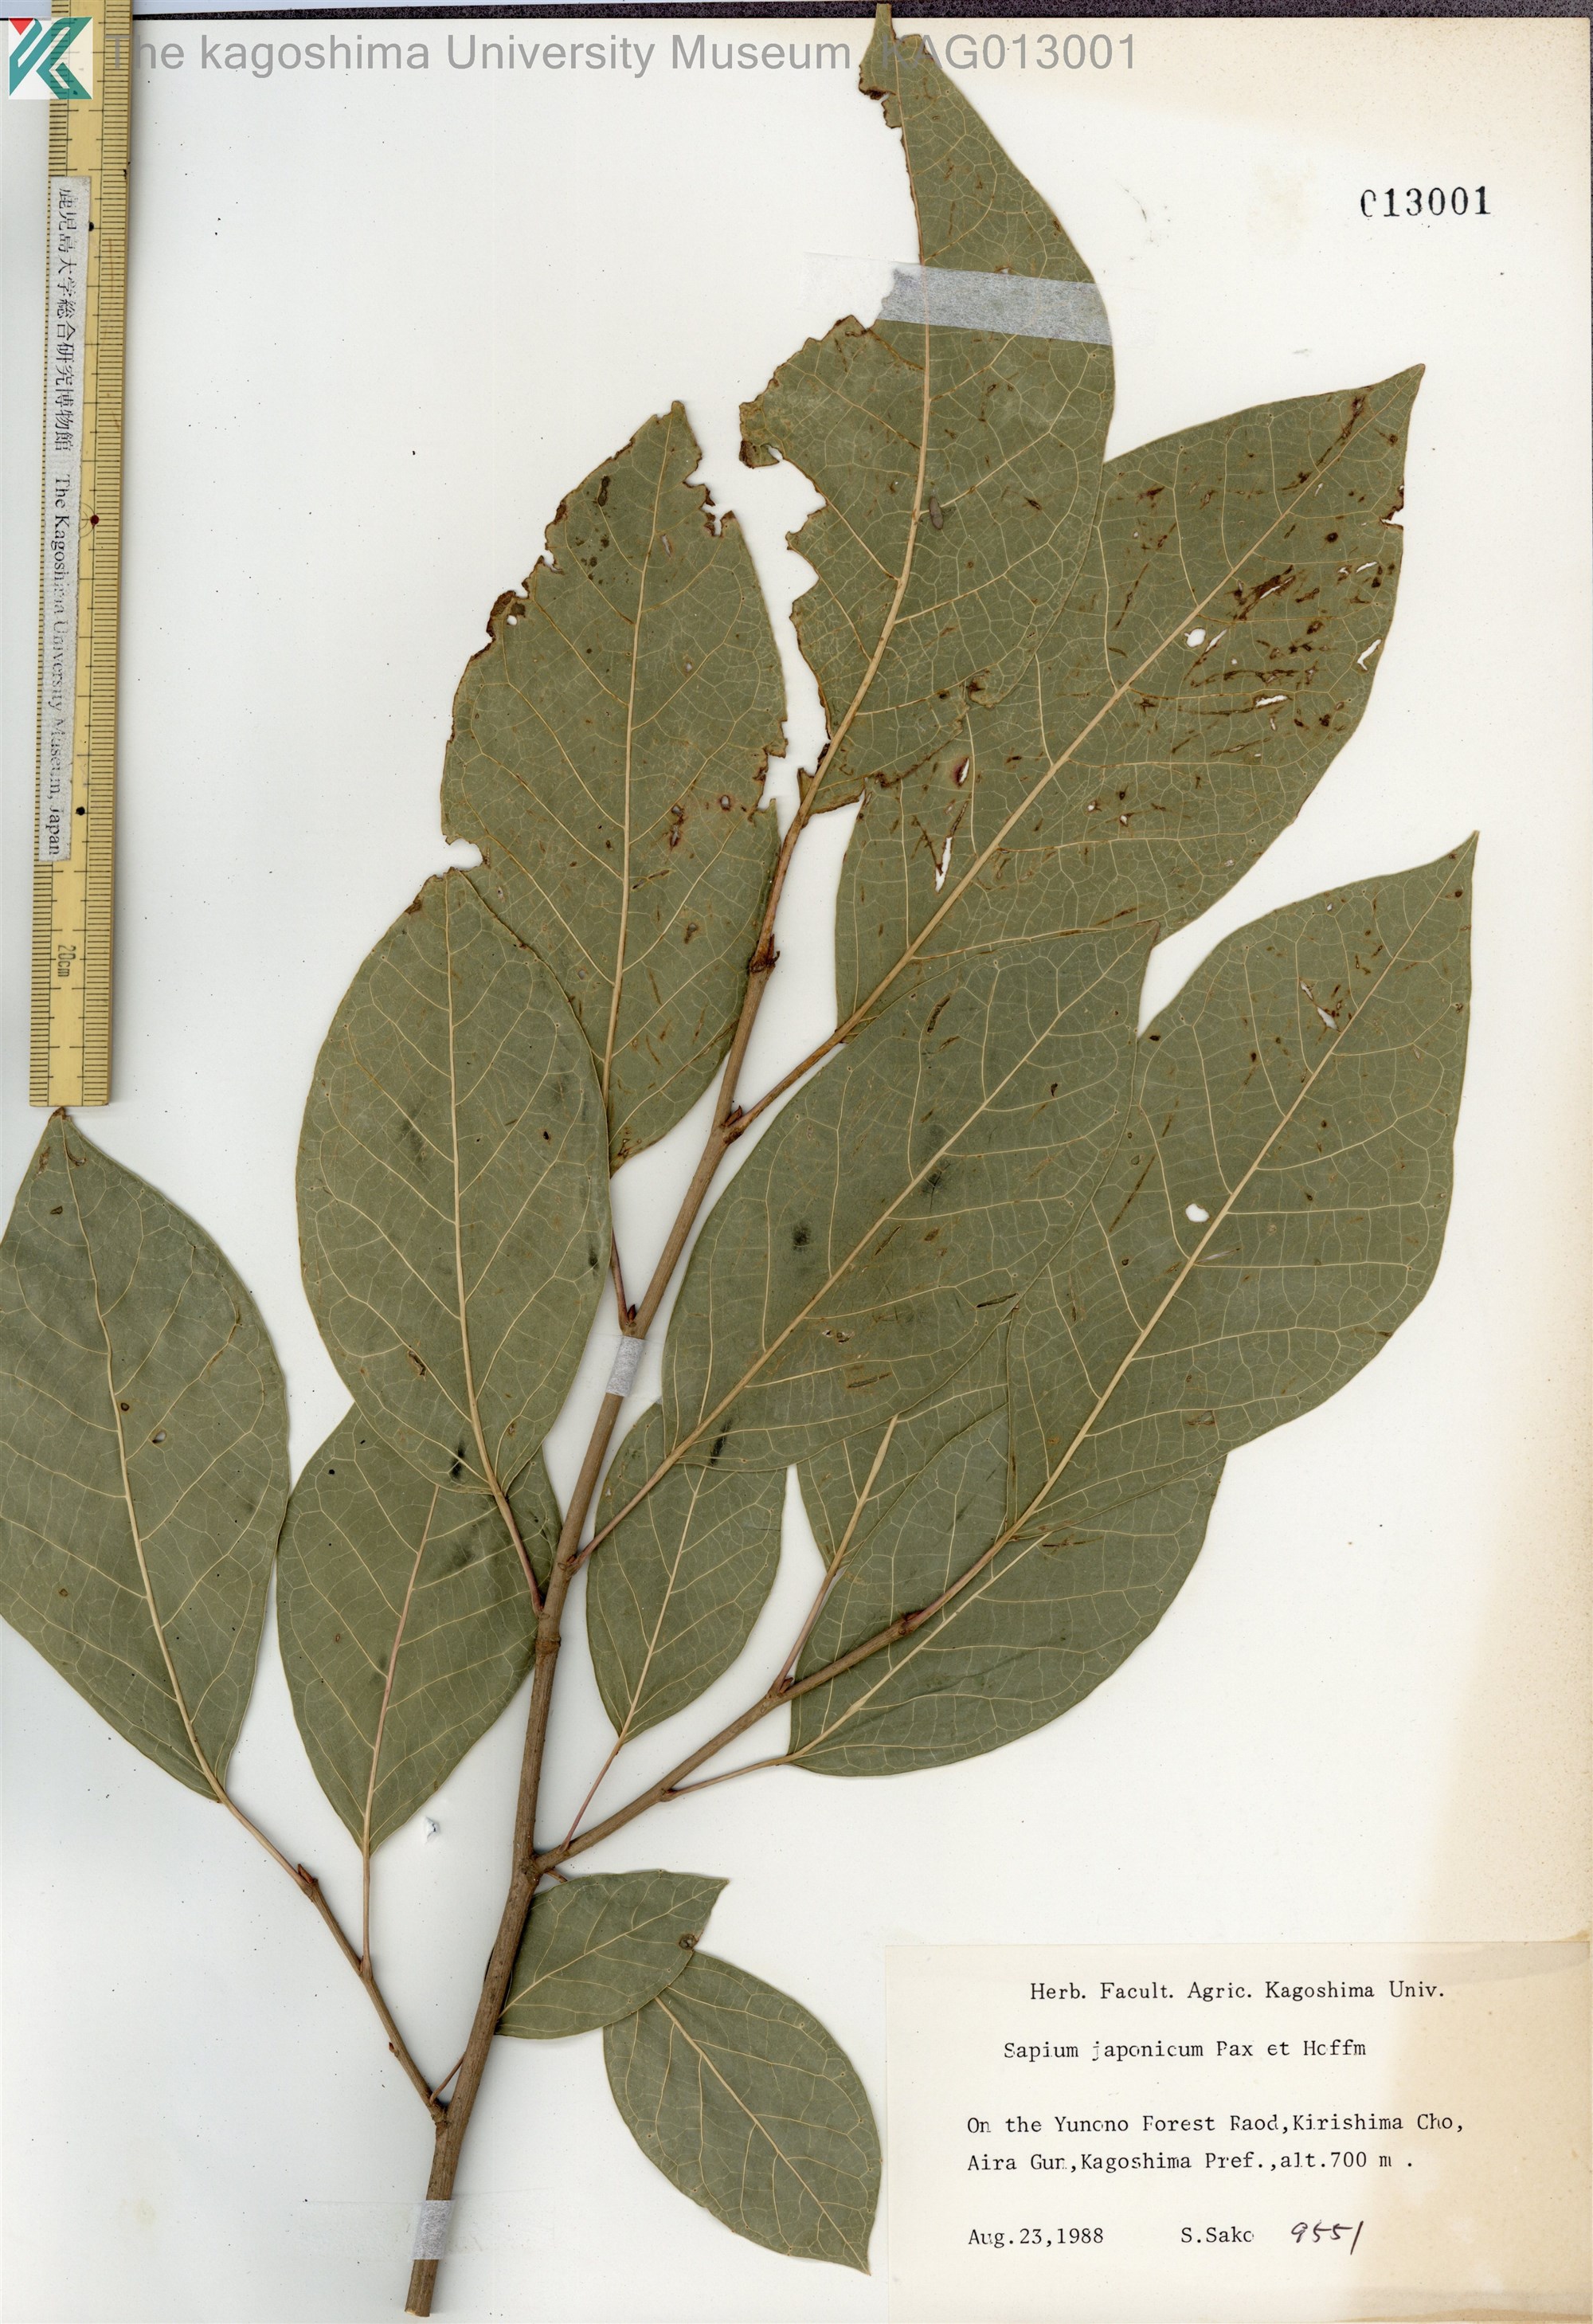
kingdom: Plantae
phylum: Tracheophyta
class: Magnoliopsida
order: Malpighiales
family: Euphorbiaceae
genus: Neoshirakia
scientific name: Neoshirakia japonica
